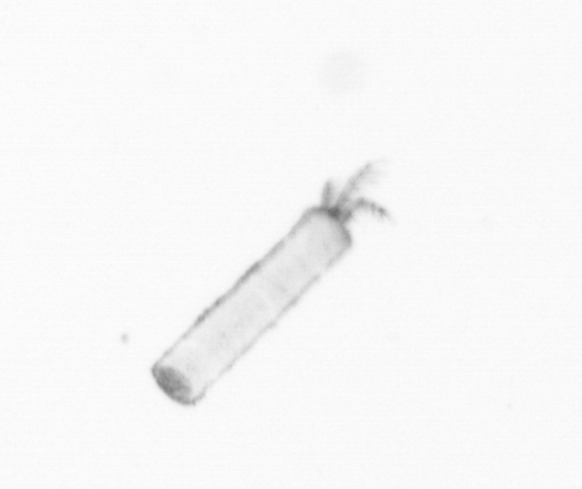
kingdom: Chromista
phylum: Ochrophyta
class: Bacillariophyceae
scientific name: Bacillariophyceae
